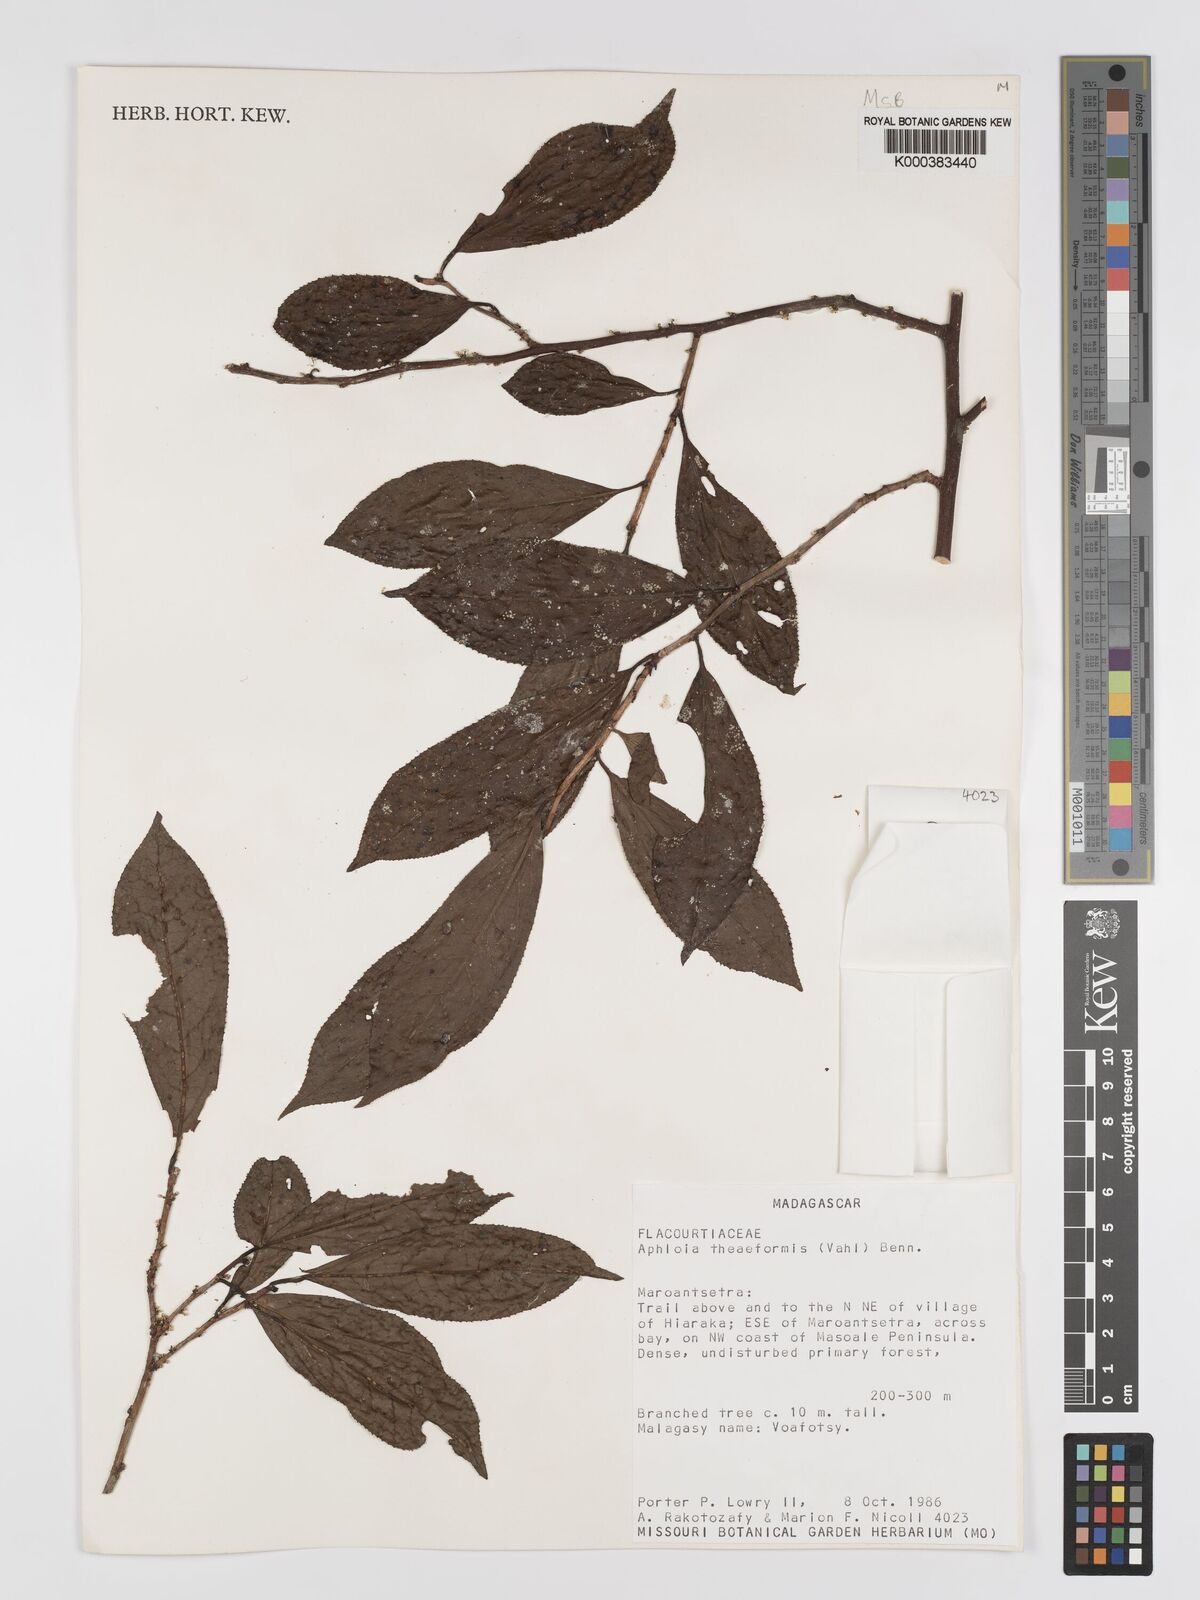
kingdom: Plantae
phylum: Tracheophyta
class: Magnoliopsida
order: Crossosomatales
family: Aphloiaceae
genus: Aphloia
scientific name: Aphloia theiformis
